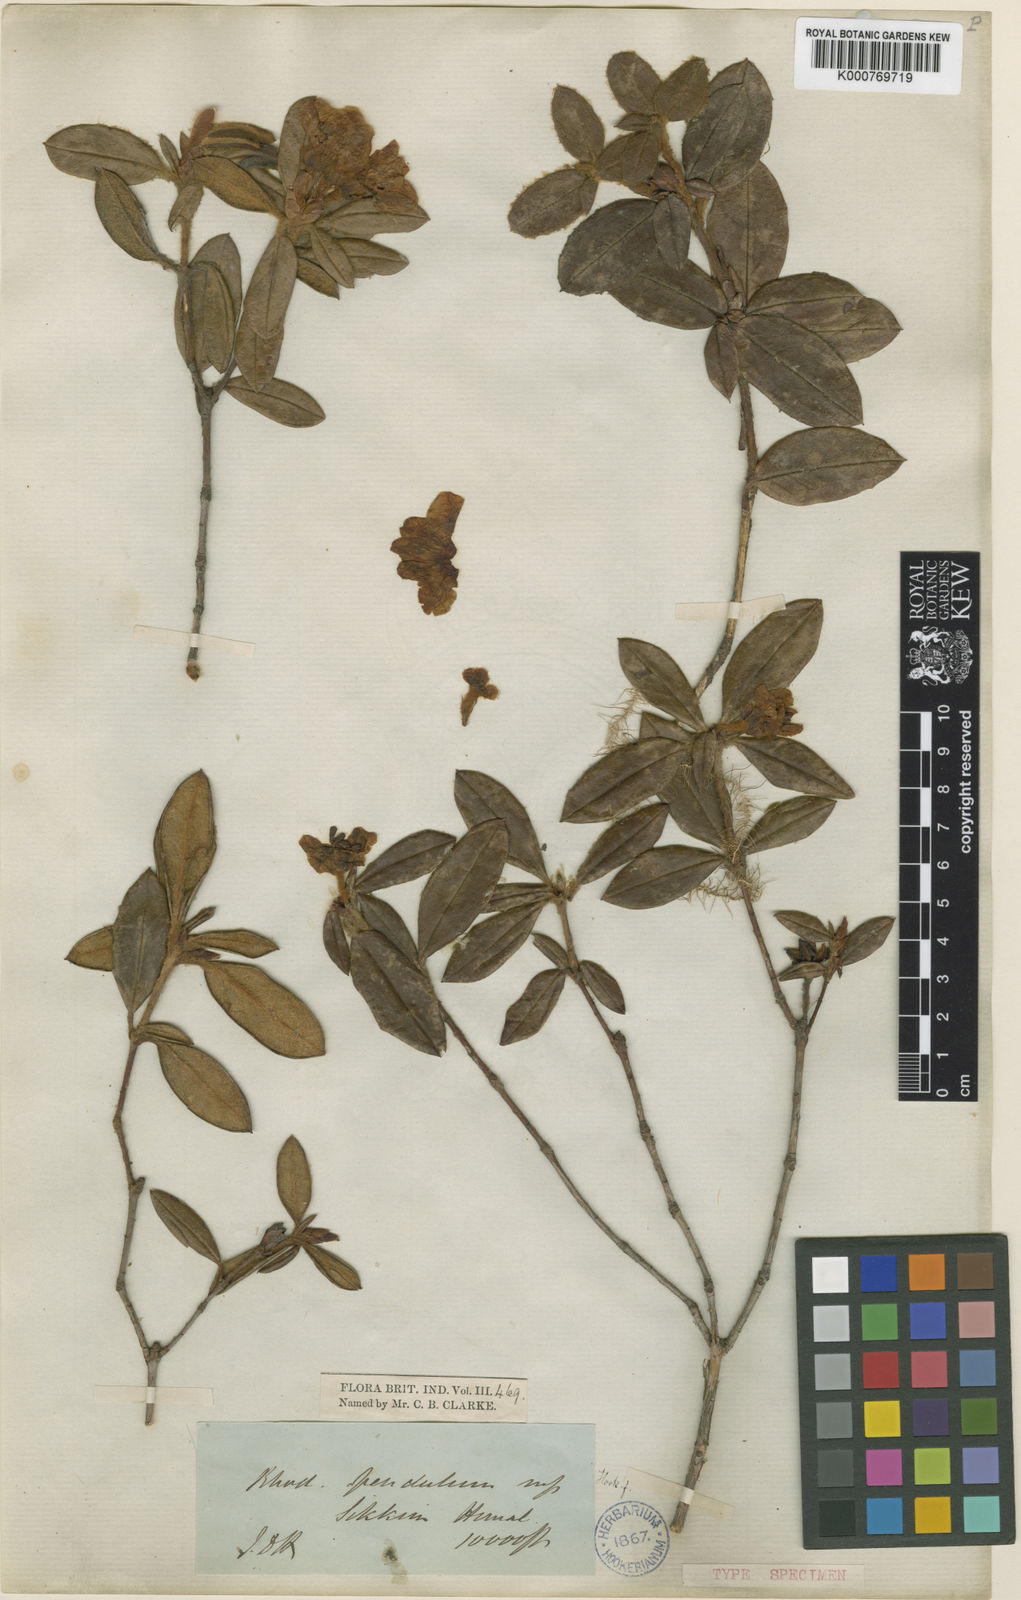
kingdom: Plantae
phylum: Tracheophyta
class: Magnoliopsida
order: Ericales
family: Ericaceae
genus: Rhododendron
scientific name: Rhododendron pendulum
